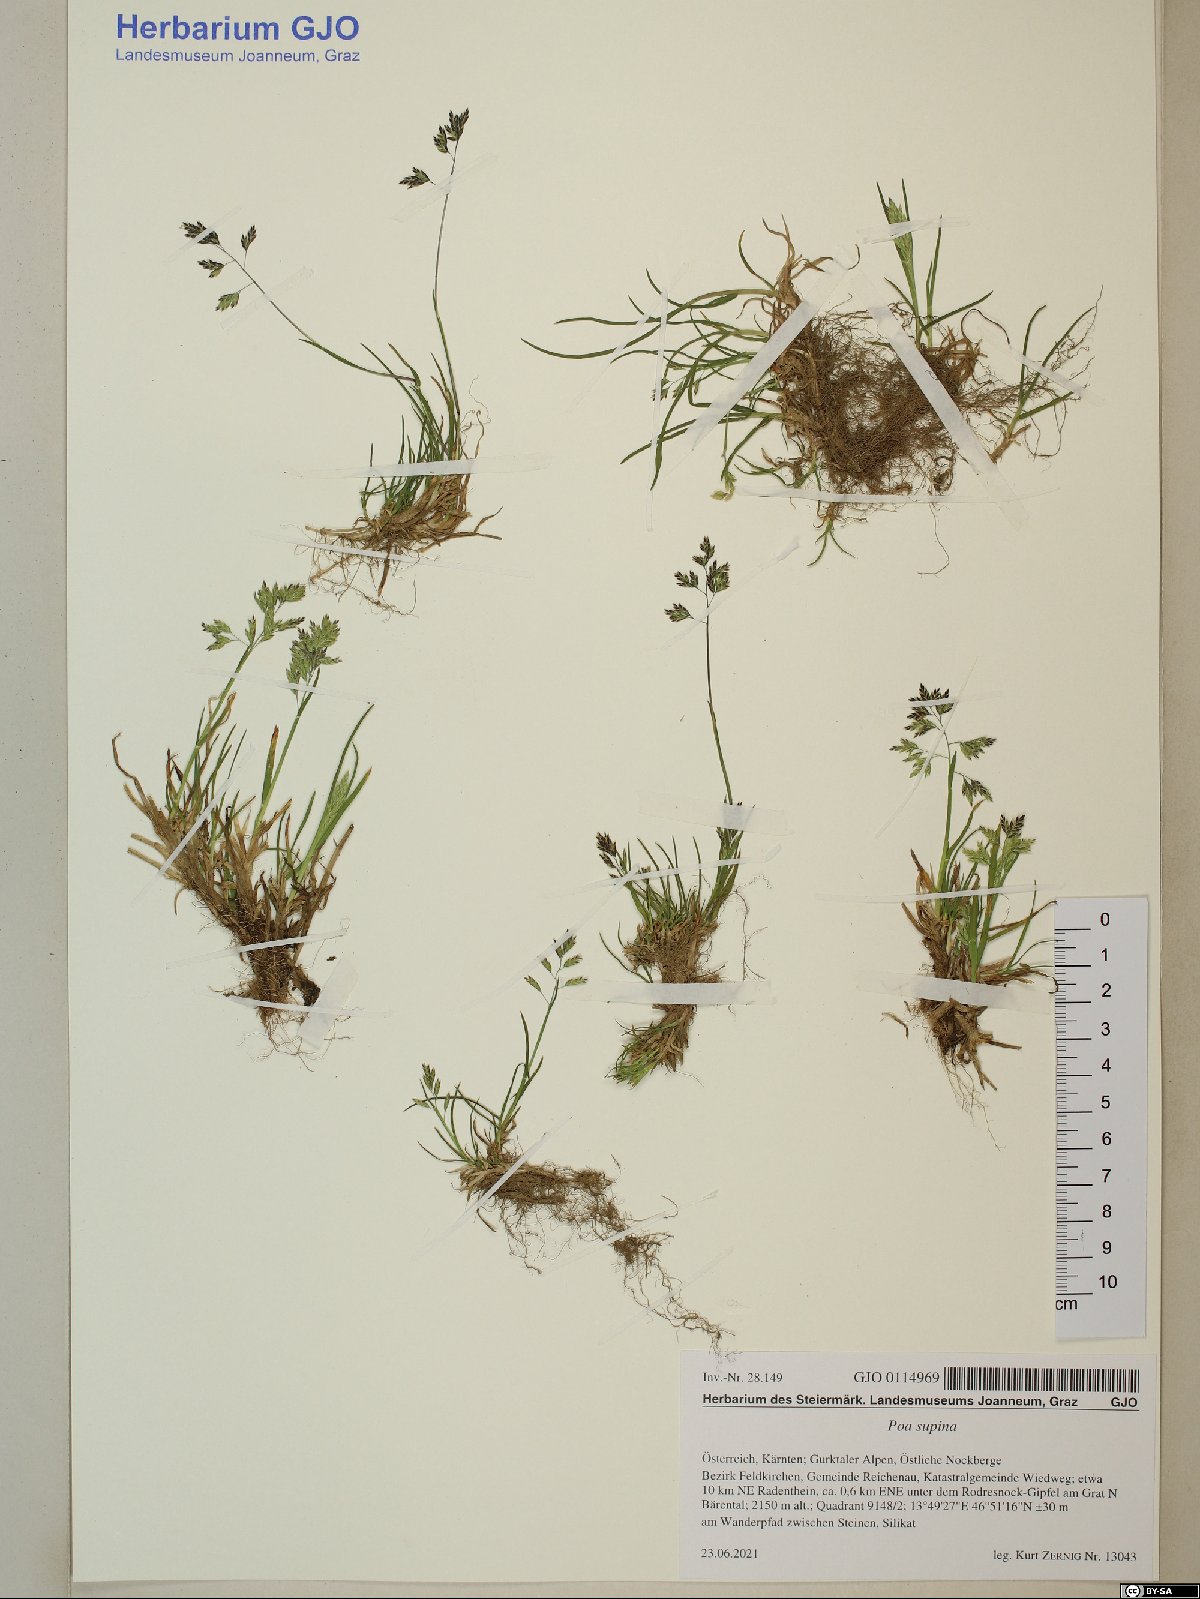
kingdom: Plantae
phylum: Tracheophyta
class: Liliopsida
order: Poales
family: Poaceae
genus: Poa
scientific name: Poa supina
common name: Supina bluegrass
